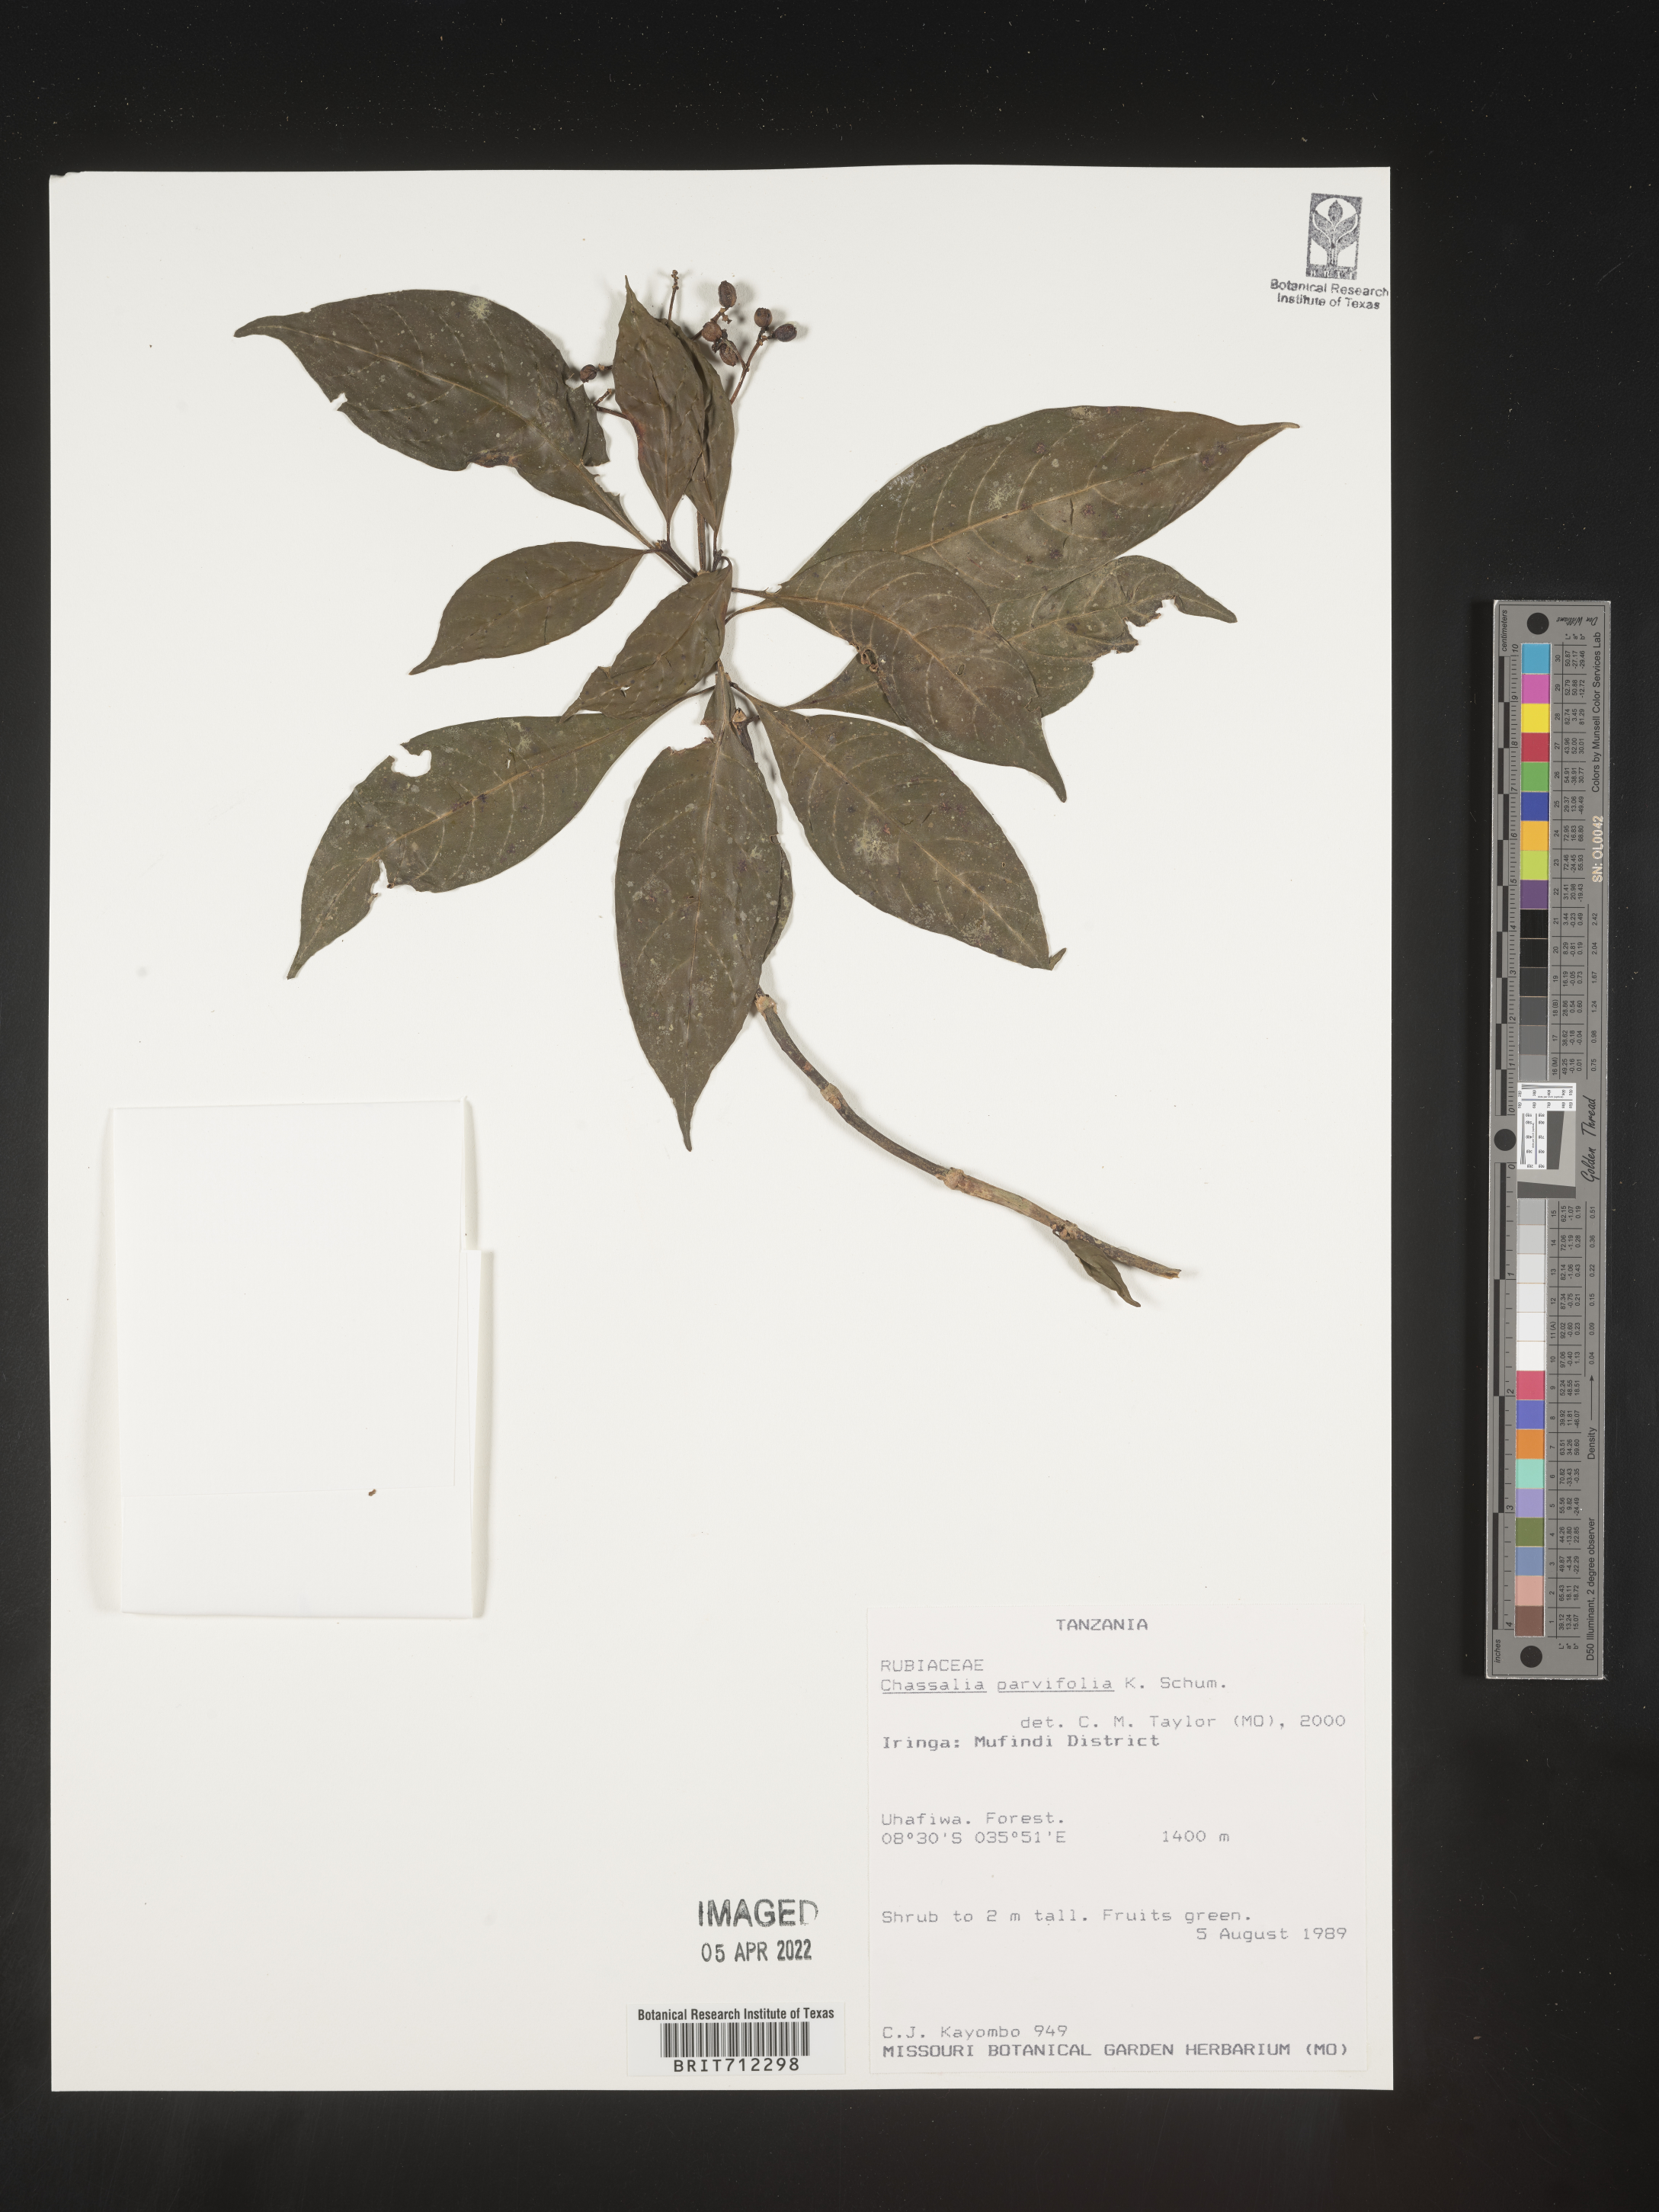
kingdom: Plantae
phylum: Tracheophyta
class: Magnoliopsida
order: Gentianales
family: Rubiaceae
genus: Chassalia
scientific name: Chassalia
